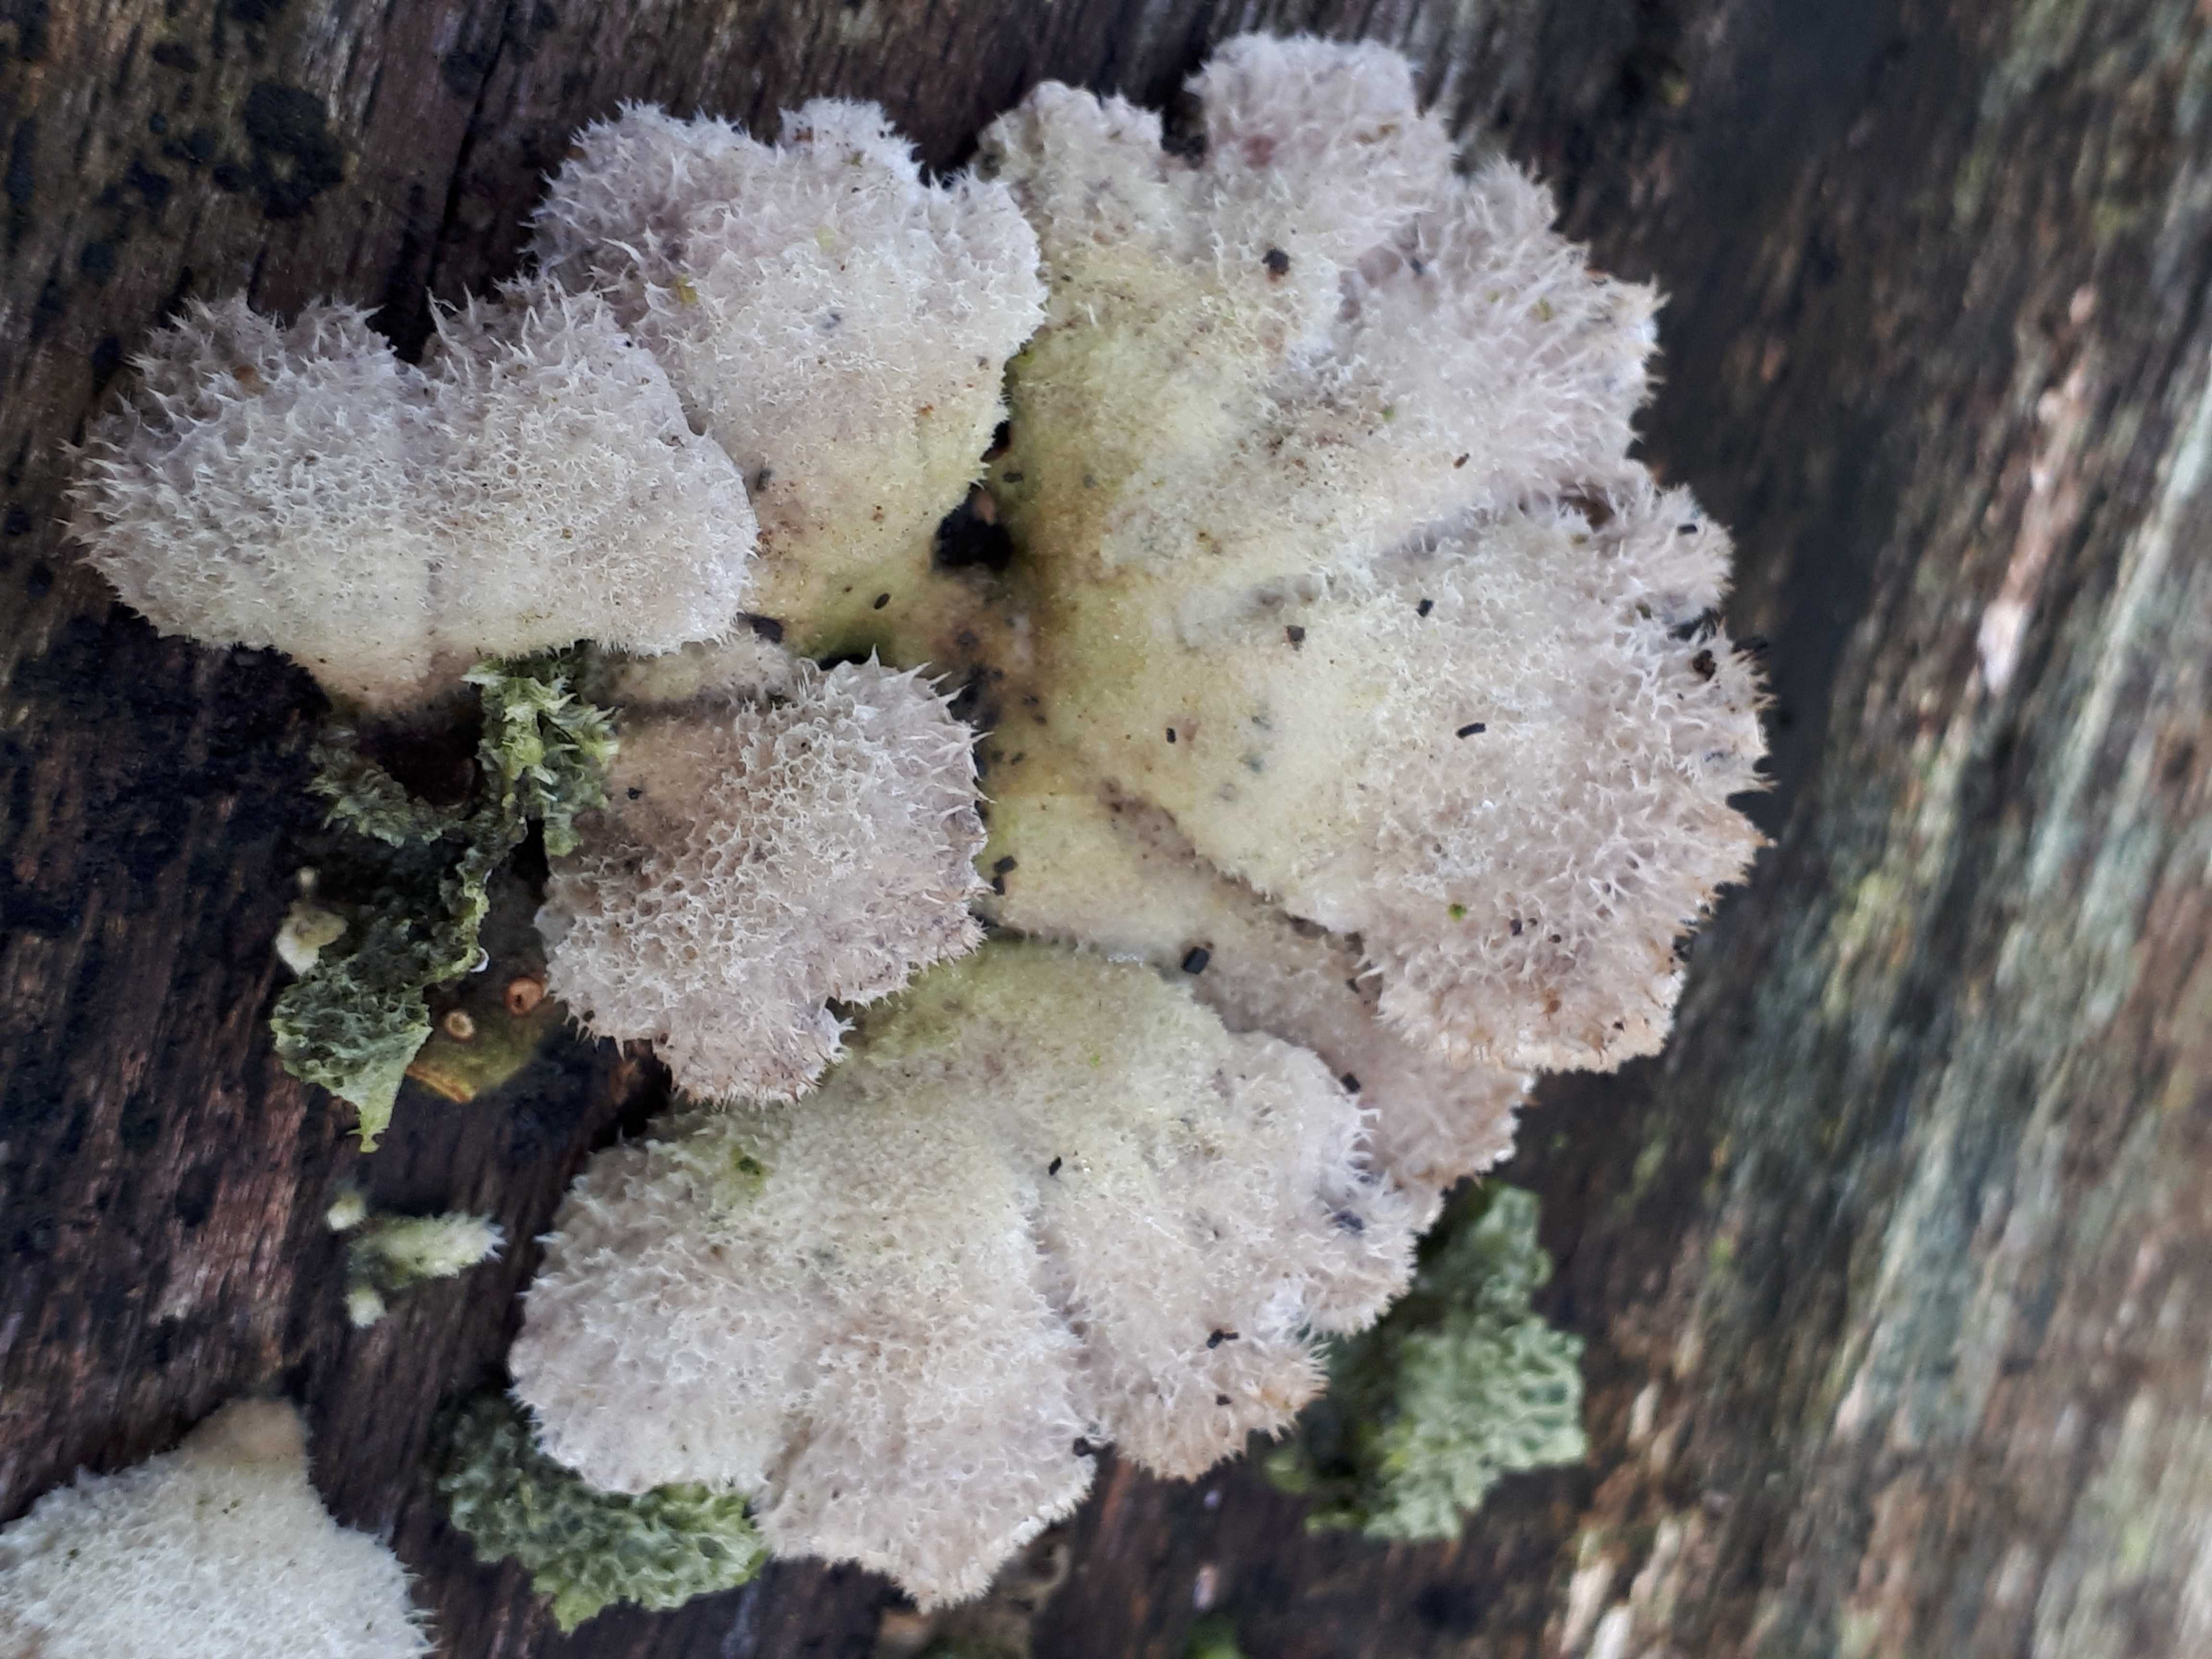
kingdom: Fungi
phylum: Basidiomycota
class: Agaricomycetes
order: Agaricales
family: Schizophyllaceae
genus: Schizophyllum
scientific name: Schizophyllum commune
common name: kløvblad
